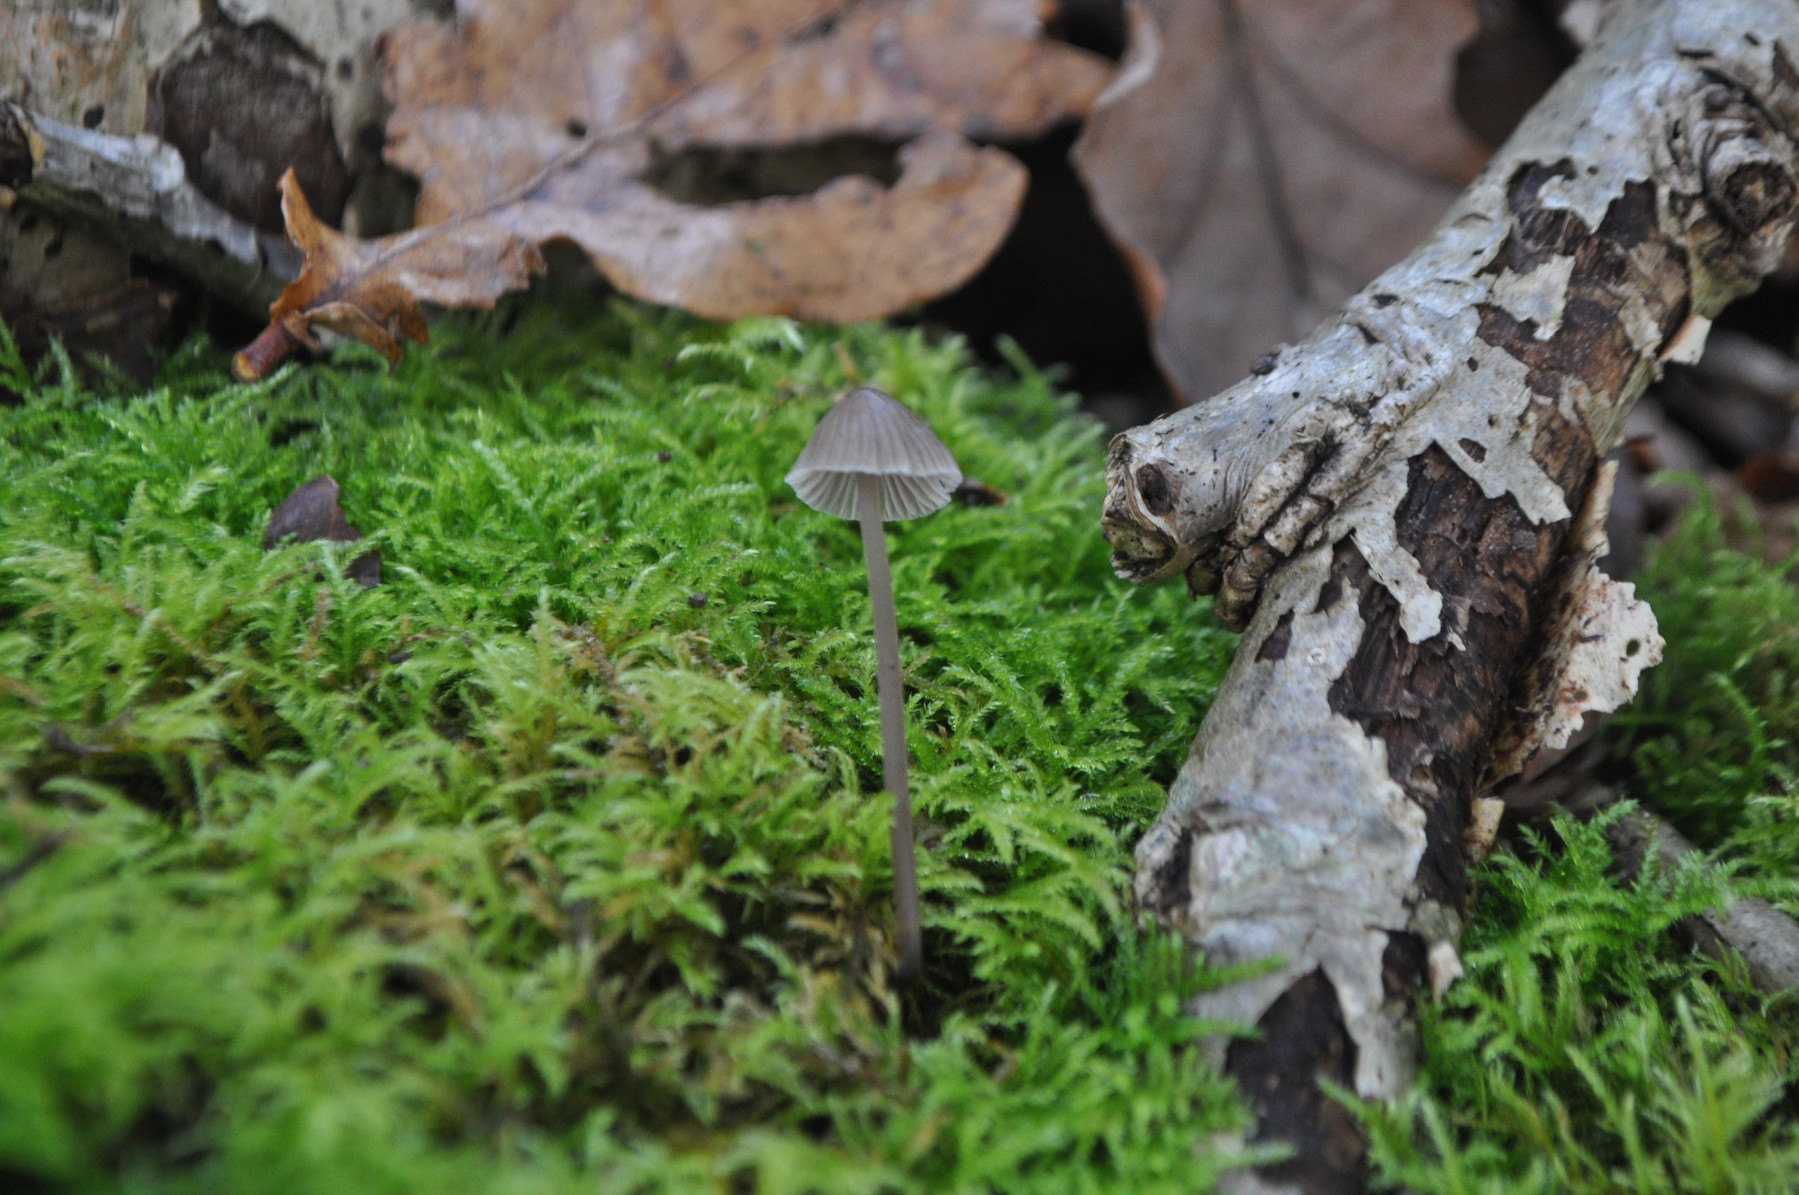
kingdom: Fungi
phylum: Basidiomycota
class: Agaricomycetes
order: Agaricales
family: Mycenaceae
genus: Mycena
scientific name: Mycena
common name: huesvamp
